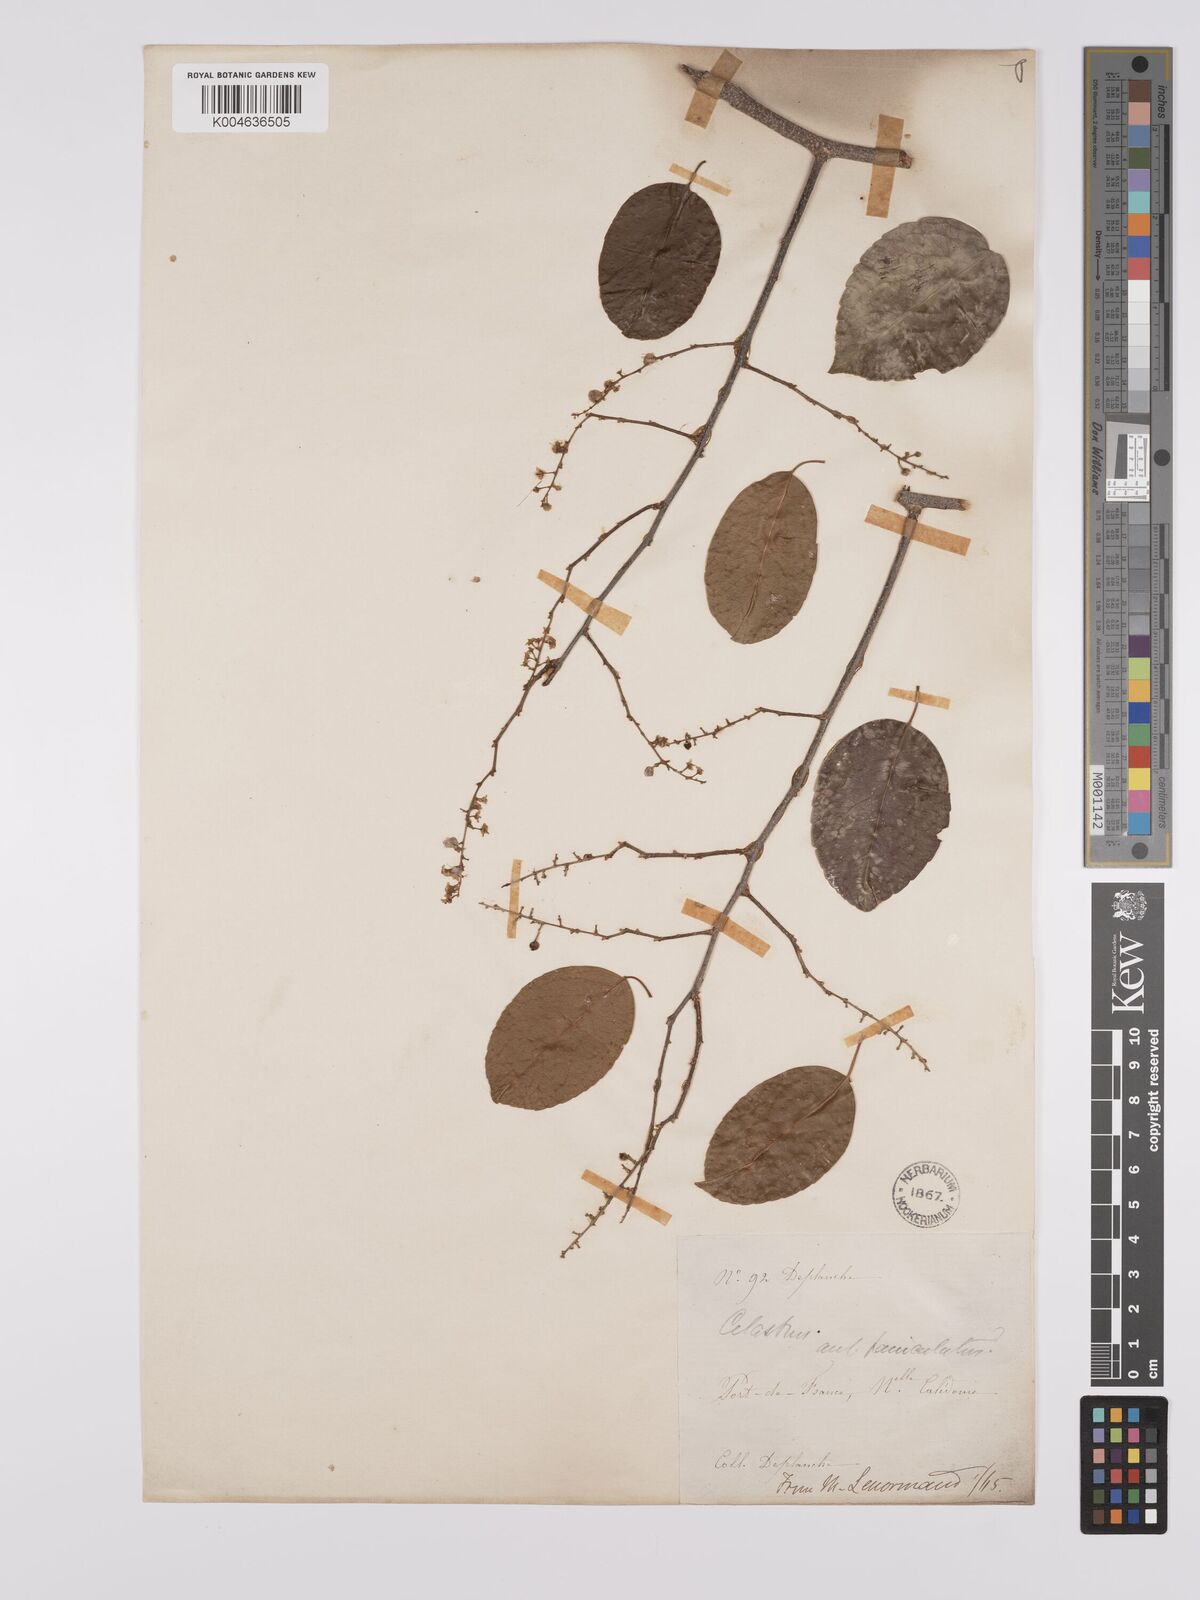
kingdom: Plantae
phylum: Tracheophyta
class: Magnoliopsida
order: Celastrales
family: Celastraceae
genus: Celastrus
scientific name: Celastrus paniculatus
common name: Oriental bittersweet; staff vine
